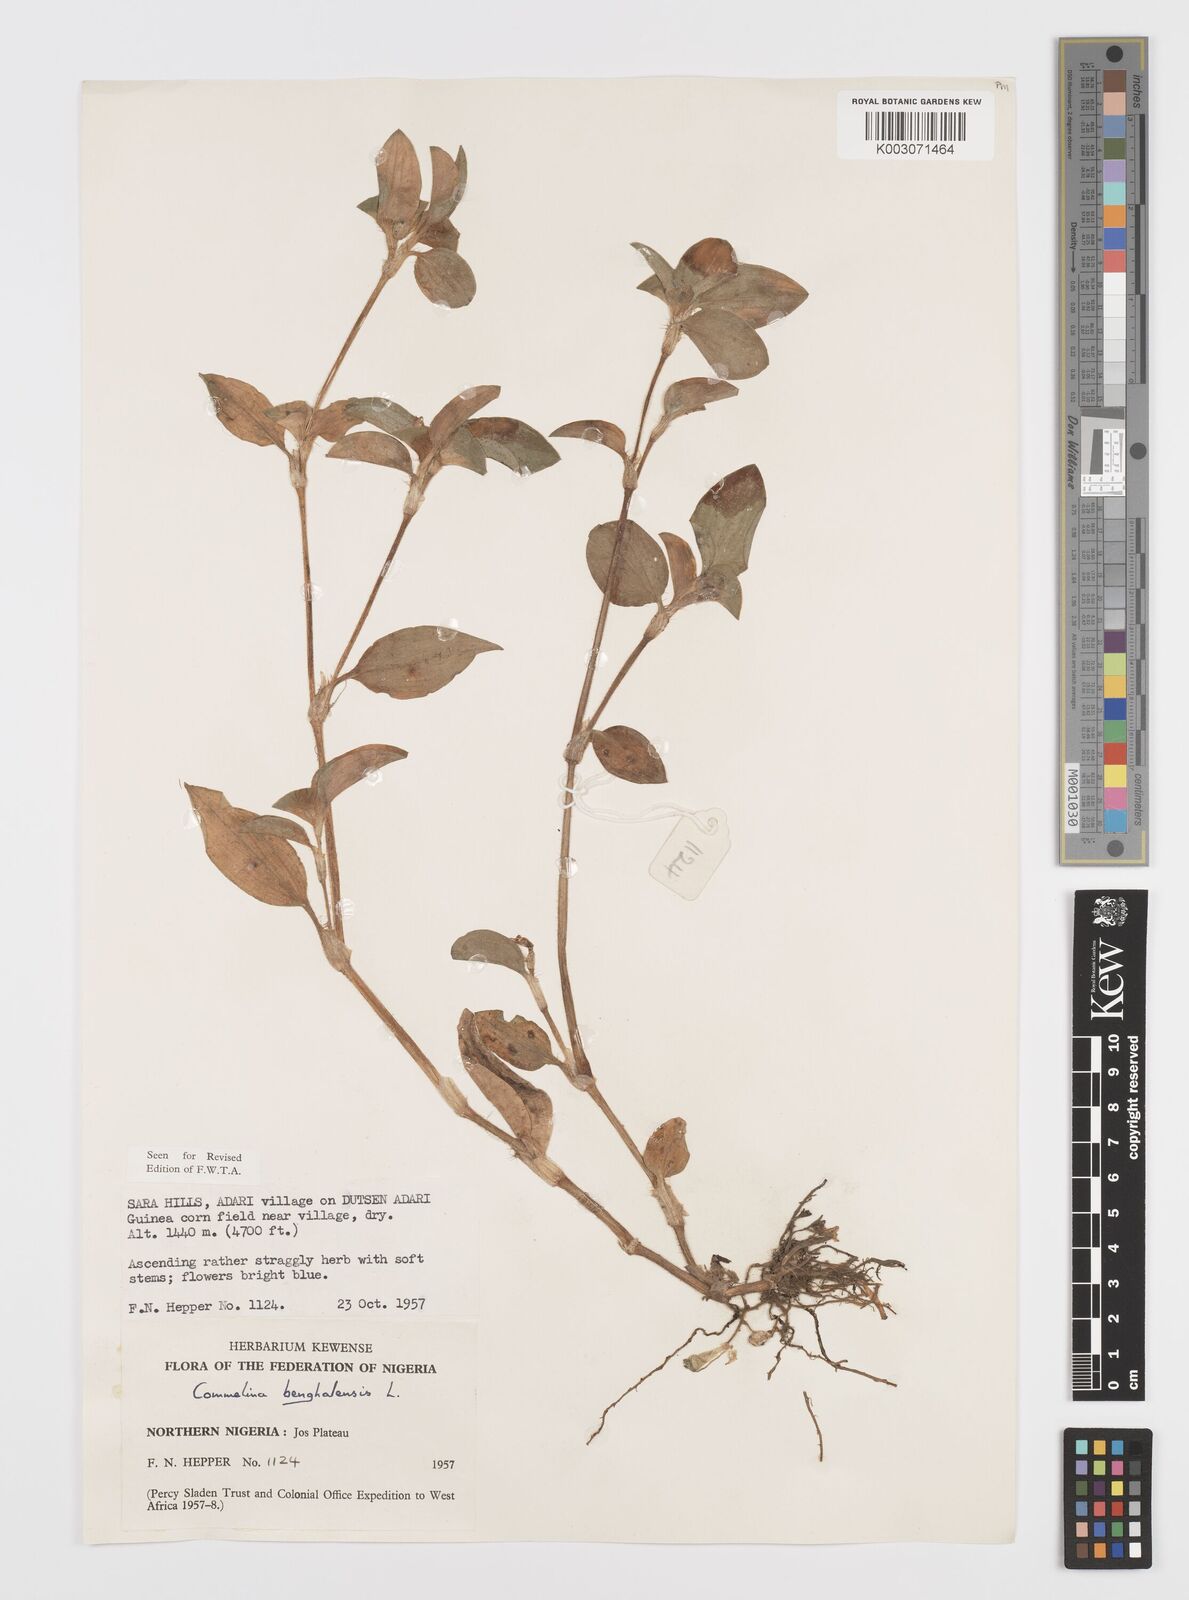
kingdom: Plantae
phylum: Tracheophyta
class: Liliopsida
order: Commelinales
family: Commelinaceae
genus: Commelina
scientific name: Commelina africana
